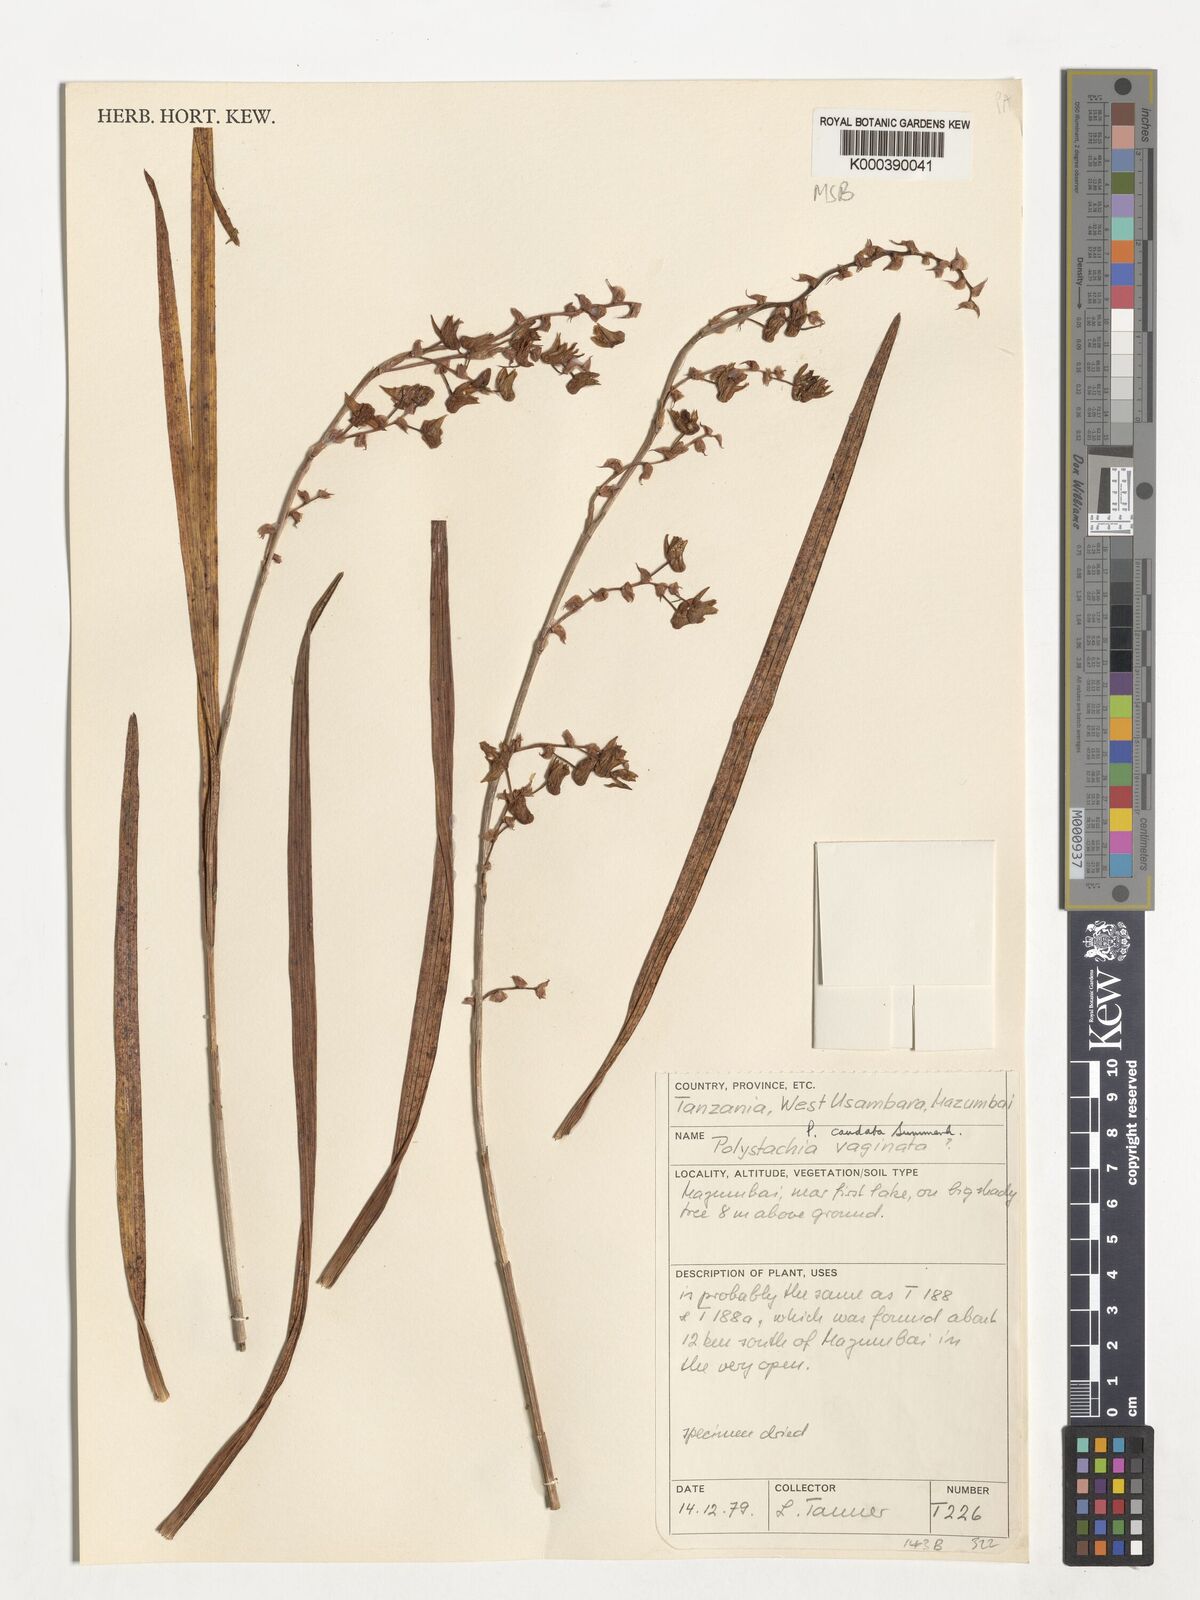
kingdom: Plantae
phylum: Tracheophyta
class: Liliopsida
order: Asparagales
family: Orchidaceae
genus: Polystachya
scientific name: Polystachya caudata
